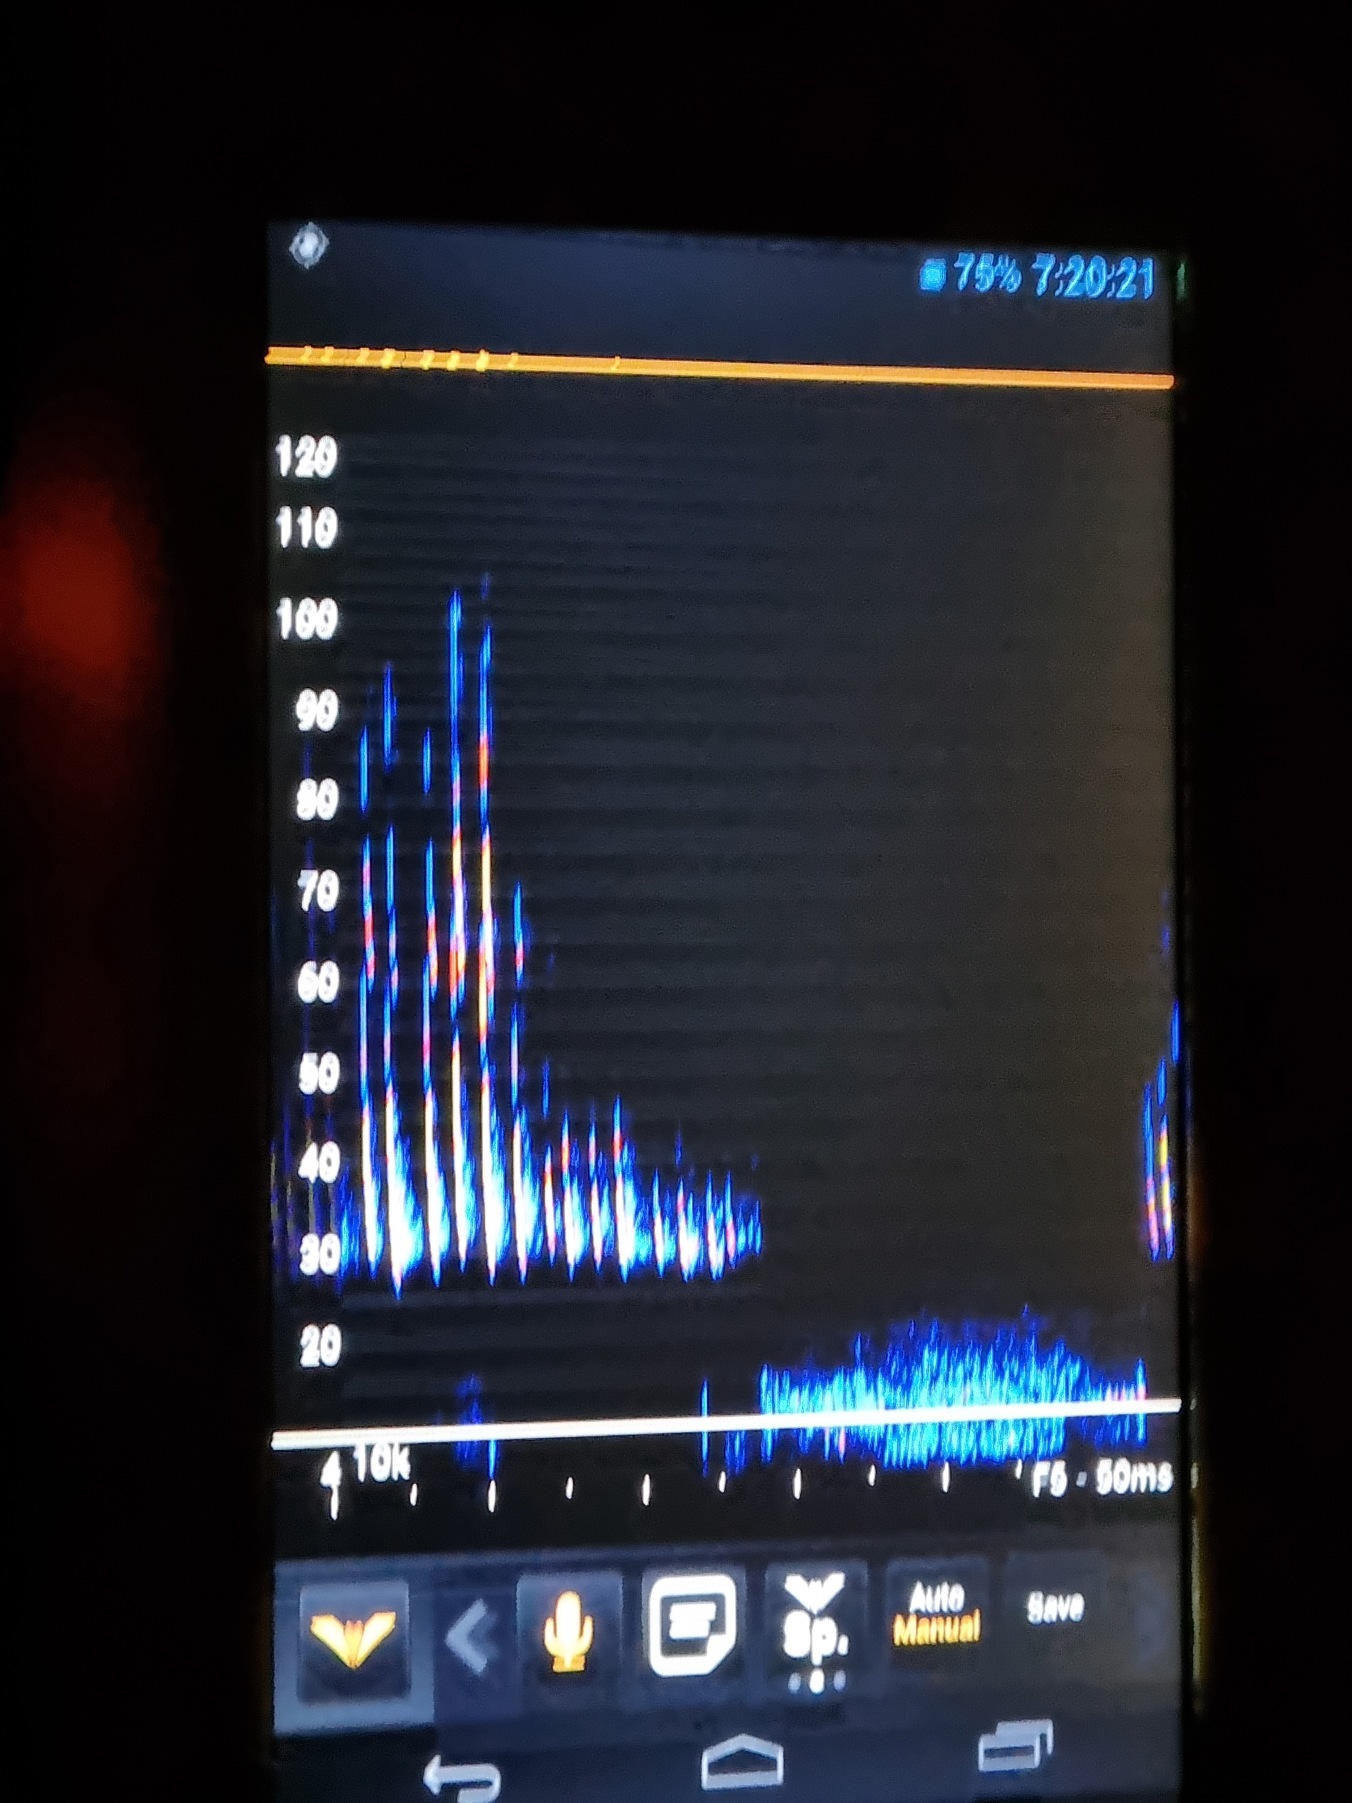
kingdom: Animalia
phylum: Chordata
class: Mammalia
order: Chiroptera
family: Vespertilionidae
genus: Myotis
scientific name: Myotis daubentonii
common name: Vandflagermus
